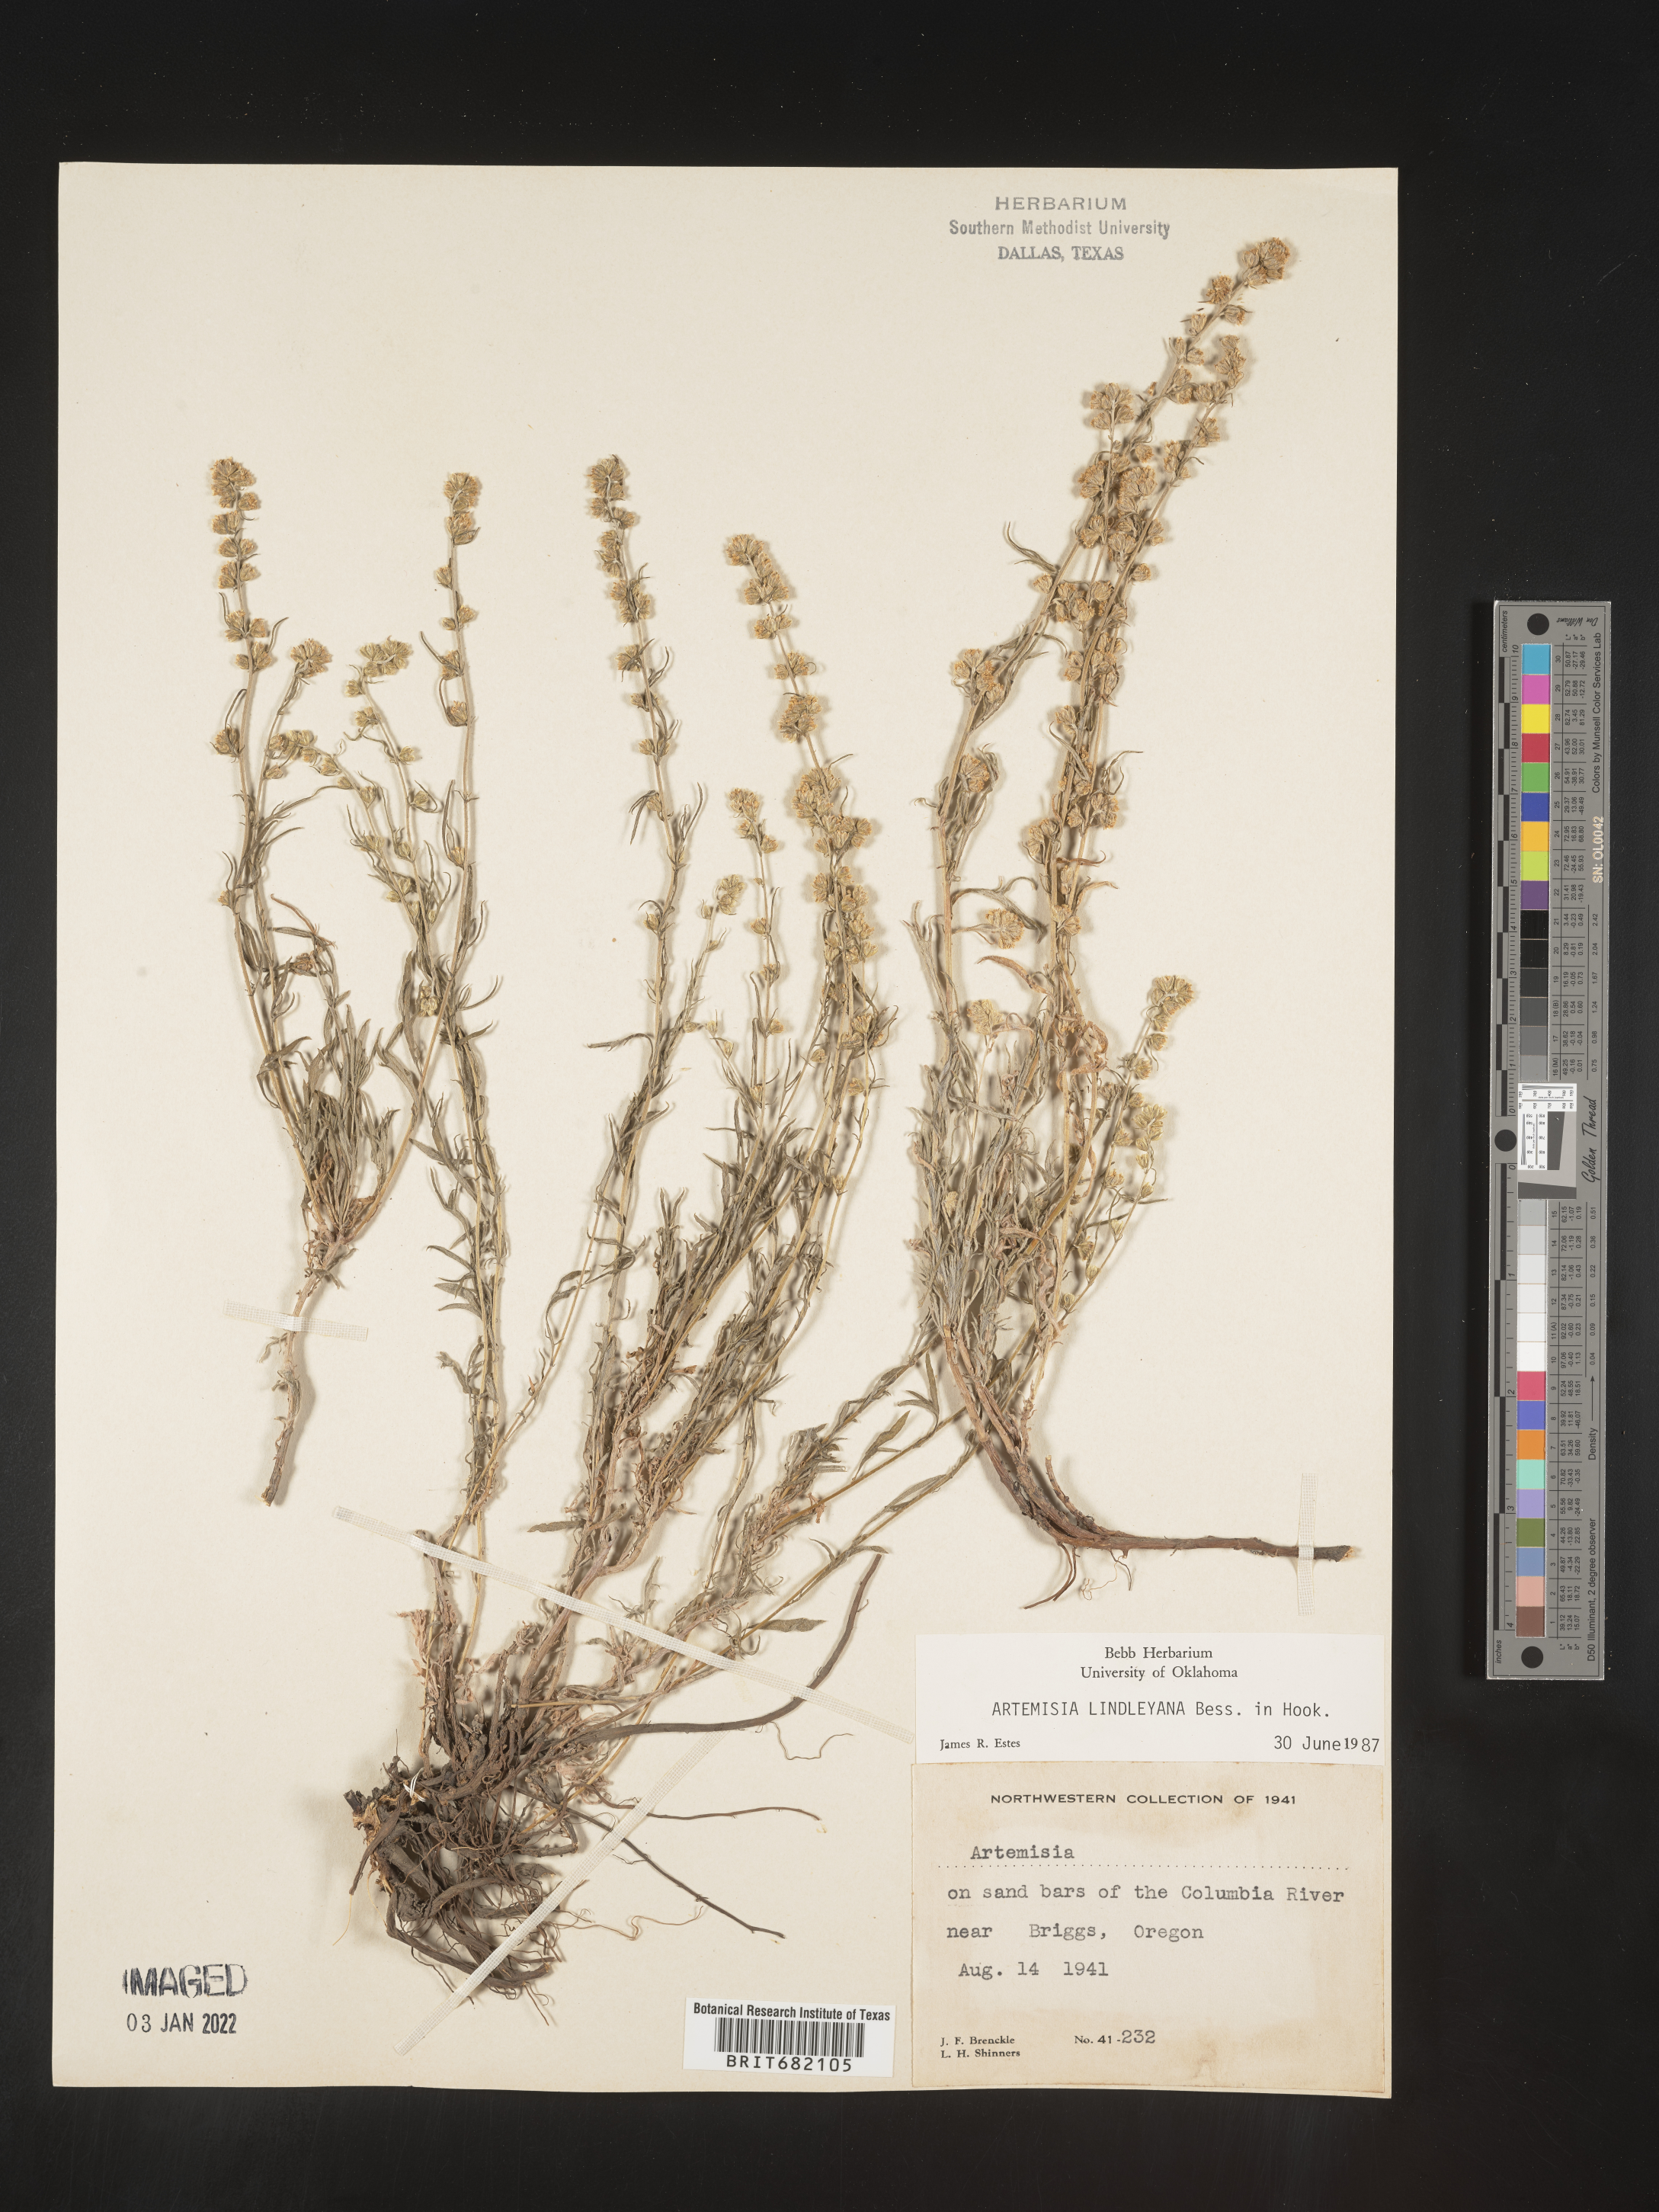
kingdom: Plantae
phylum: Tracheophyta
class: Magnoliopsida
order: Asterales
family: Asteraceae
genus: Artemisia
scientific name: Artemisia ludoviciana
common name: Western mugwort
